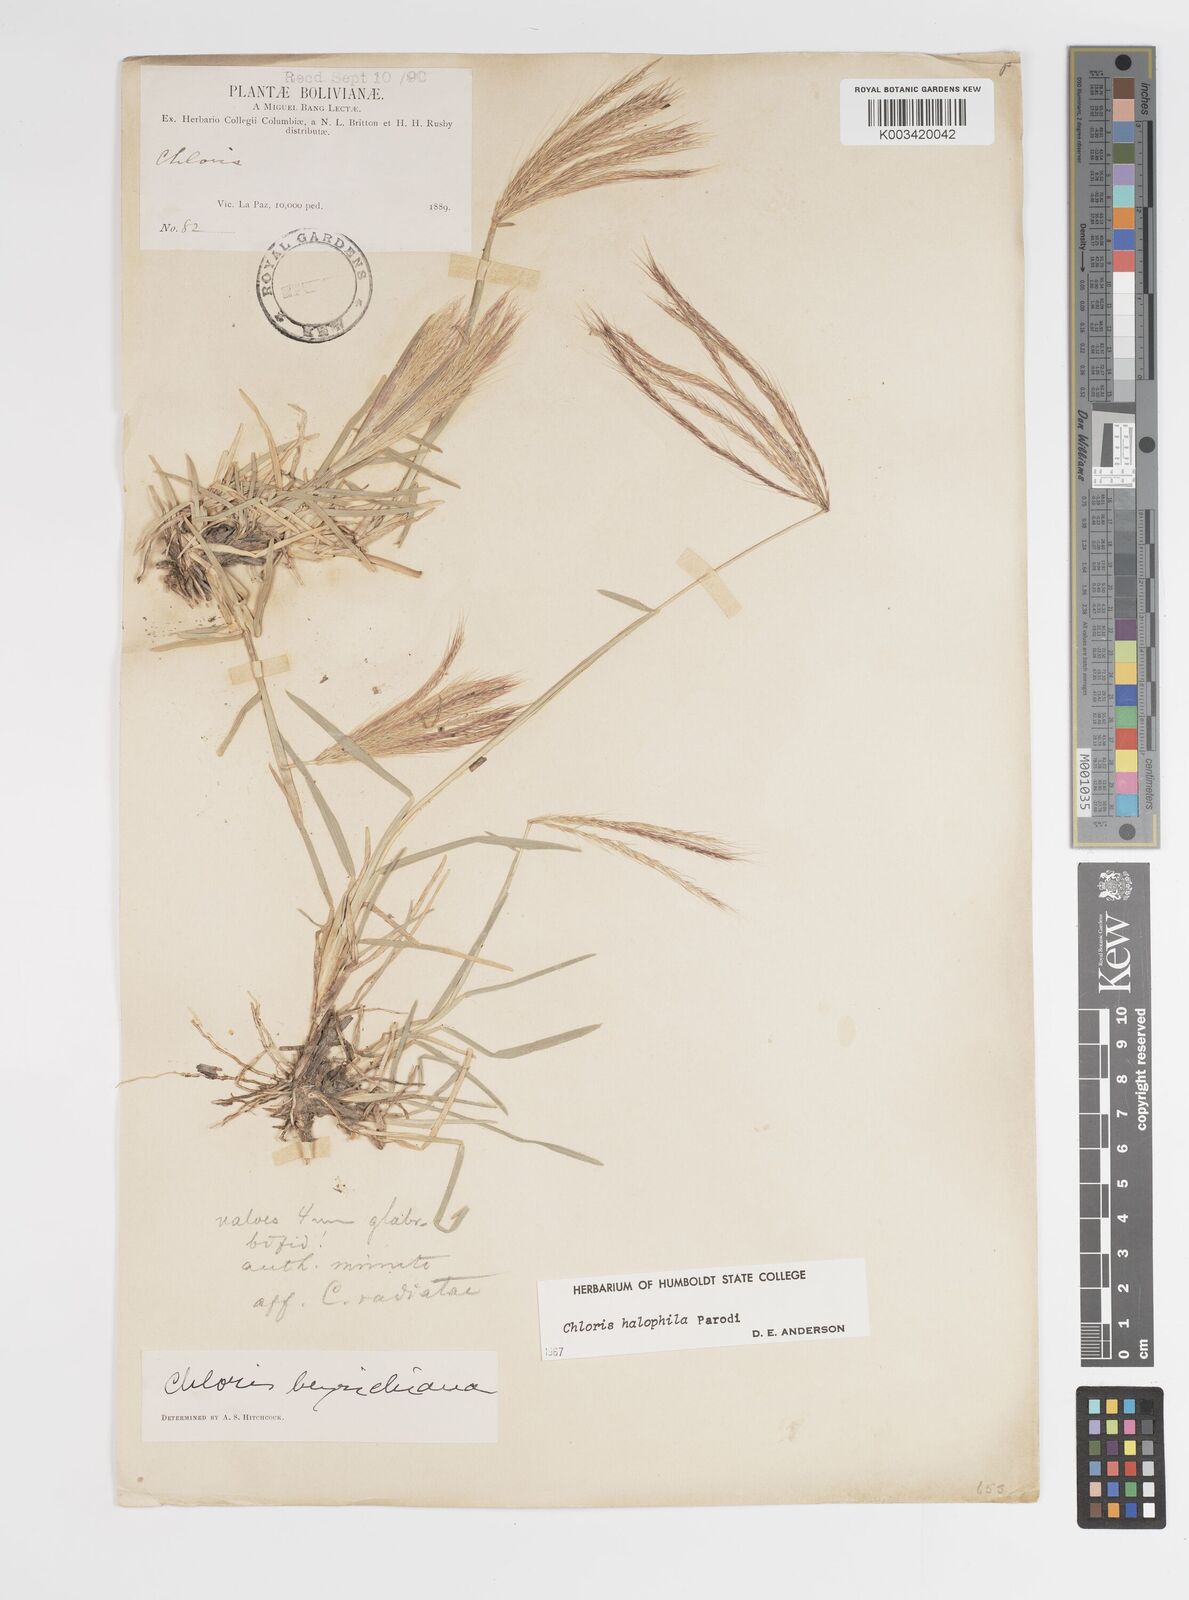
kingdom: Plantae
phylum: Tracheophyta
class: Liliopsida
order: Poales
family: Poaceae
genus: Chloris
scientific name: Chloris halophila
